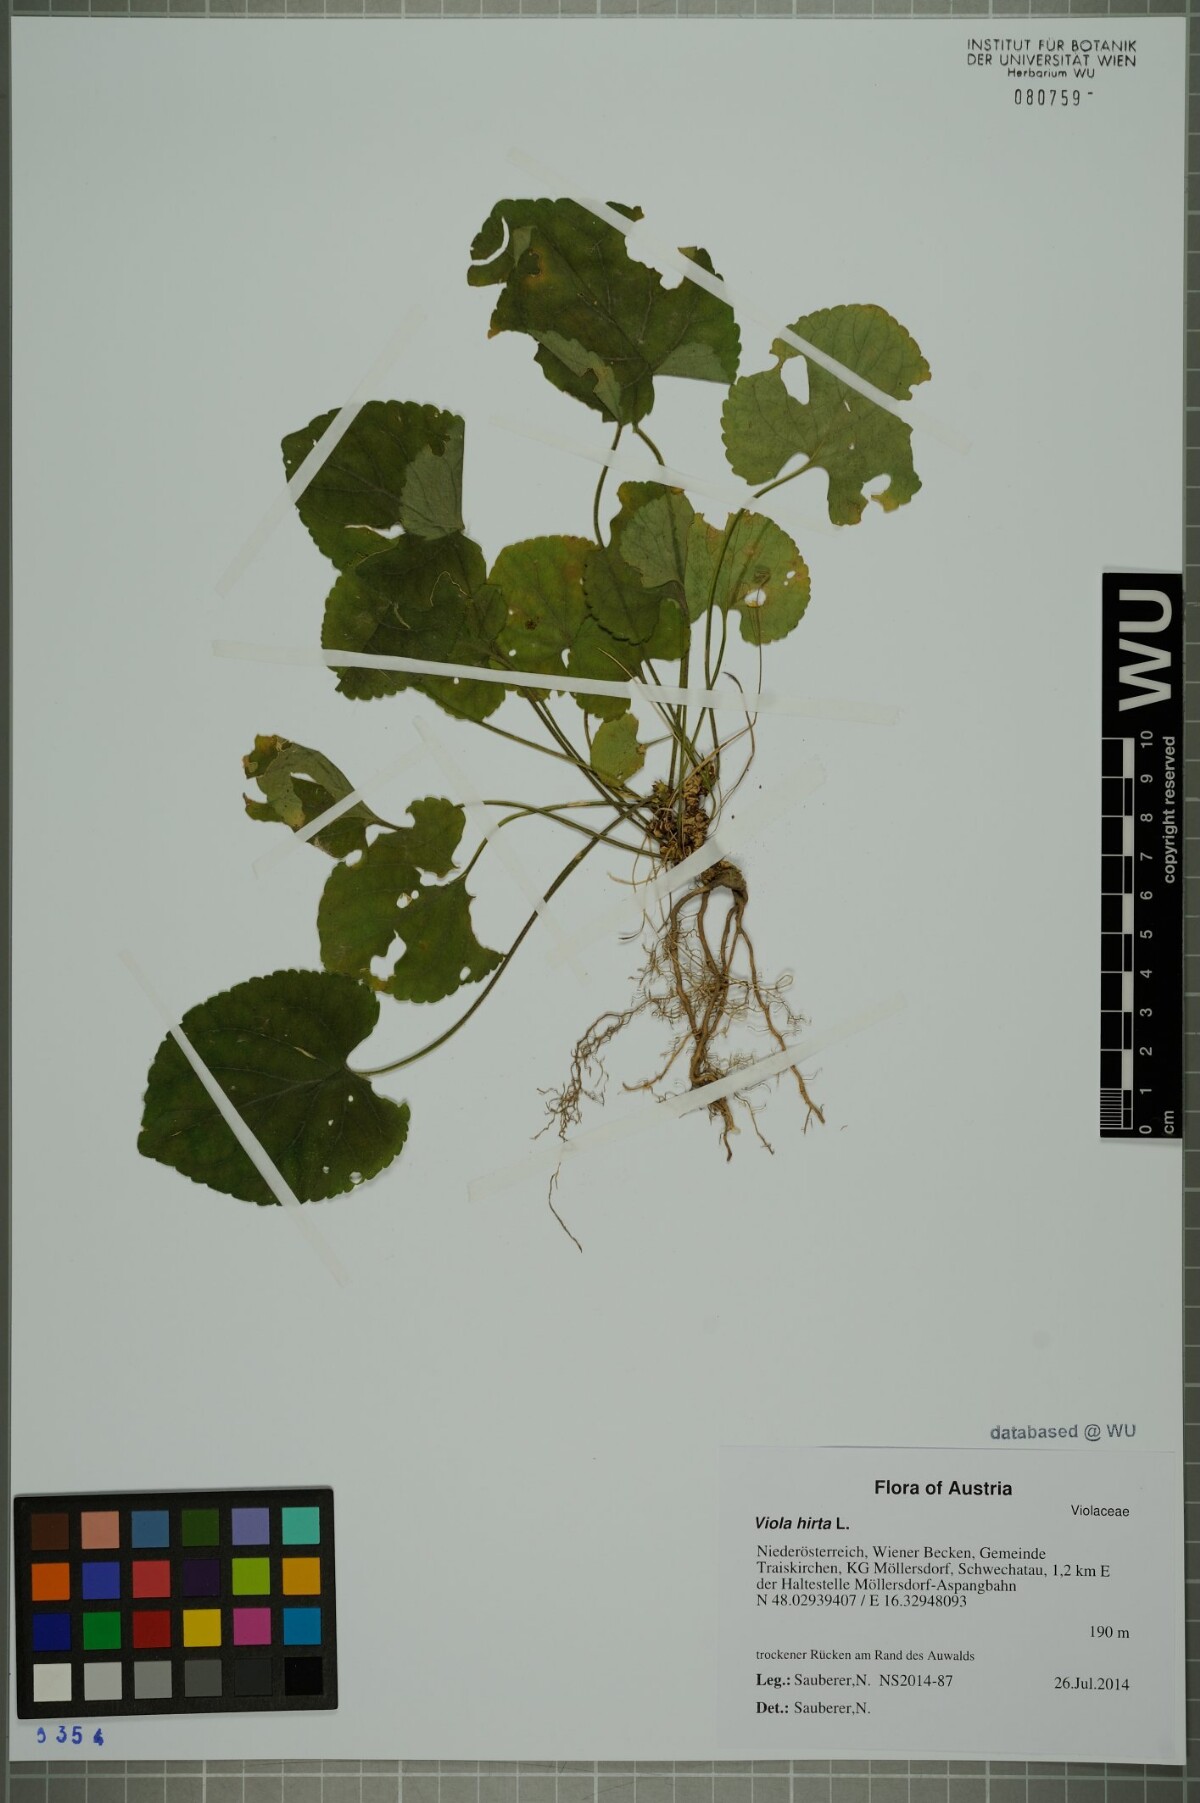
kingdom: Plantae
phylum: Tracheophyta
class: Magnoliopsida
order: Malpighiales
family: Violaceae
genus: Viola
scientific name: Viola hirta
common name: Hairy violet
